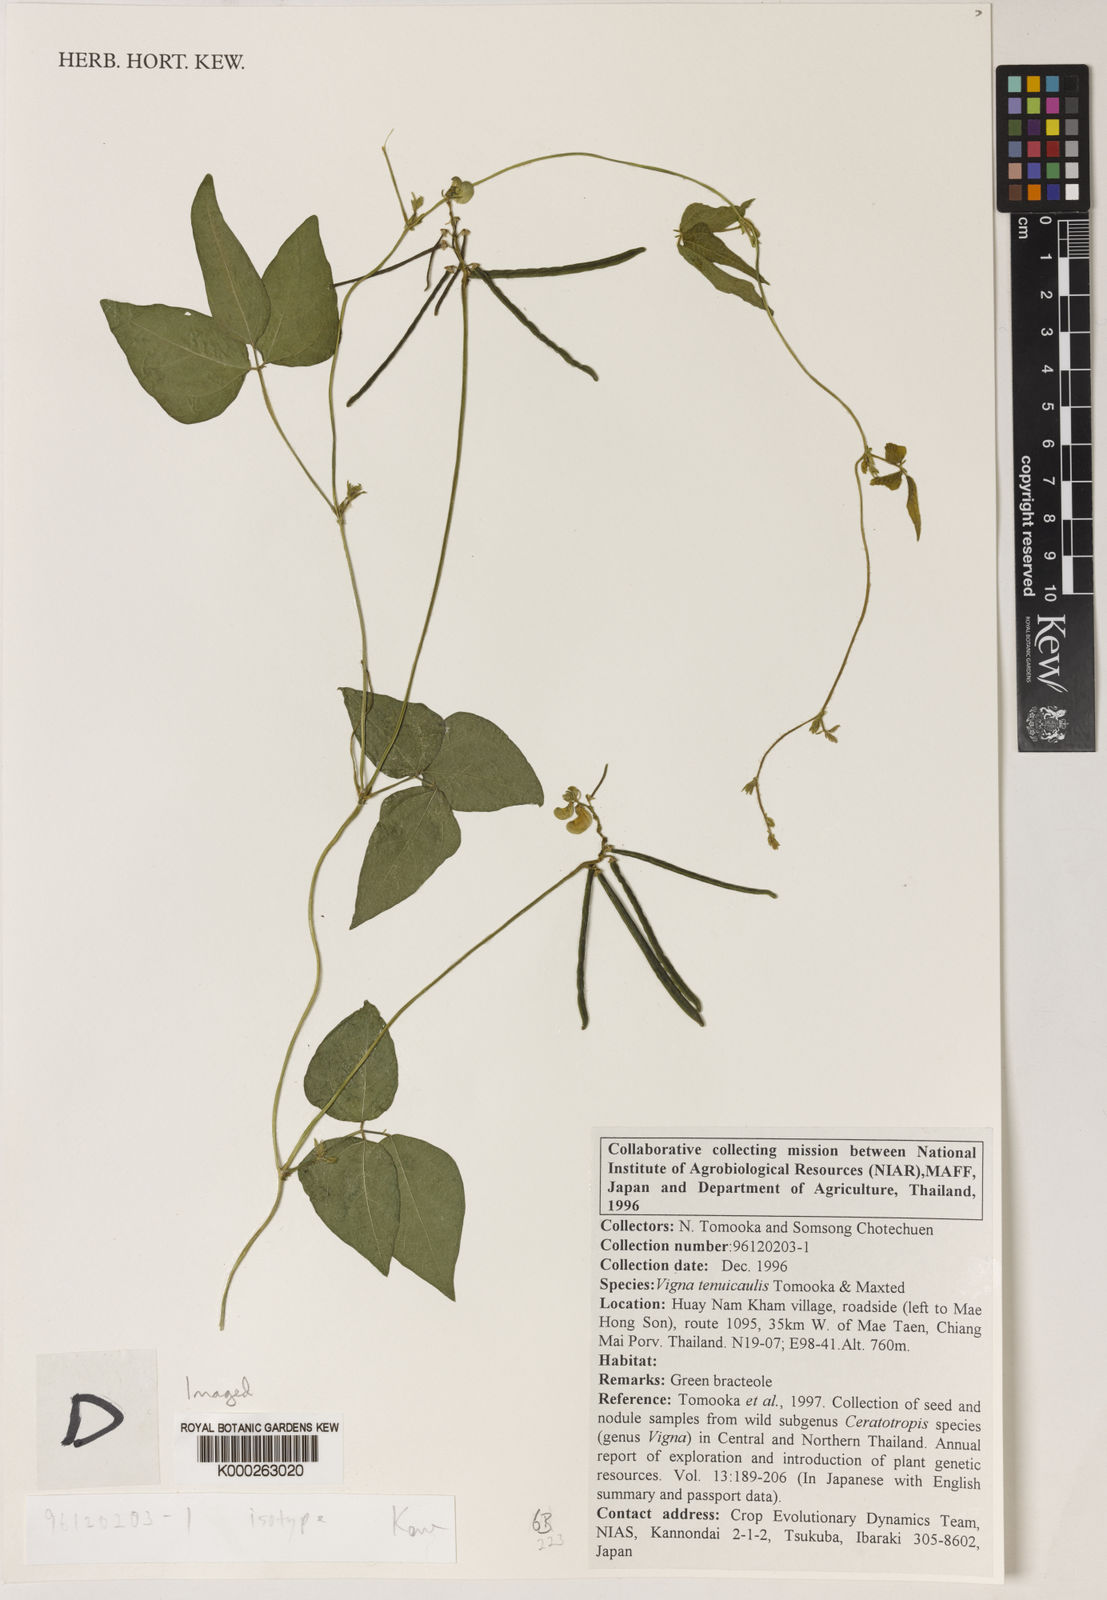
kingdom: Plantae
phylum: Tracheophyta
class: Magnoliopsida
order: Fabales
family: Fabaceae
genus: Vigna
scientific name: Vigna
